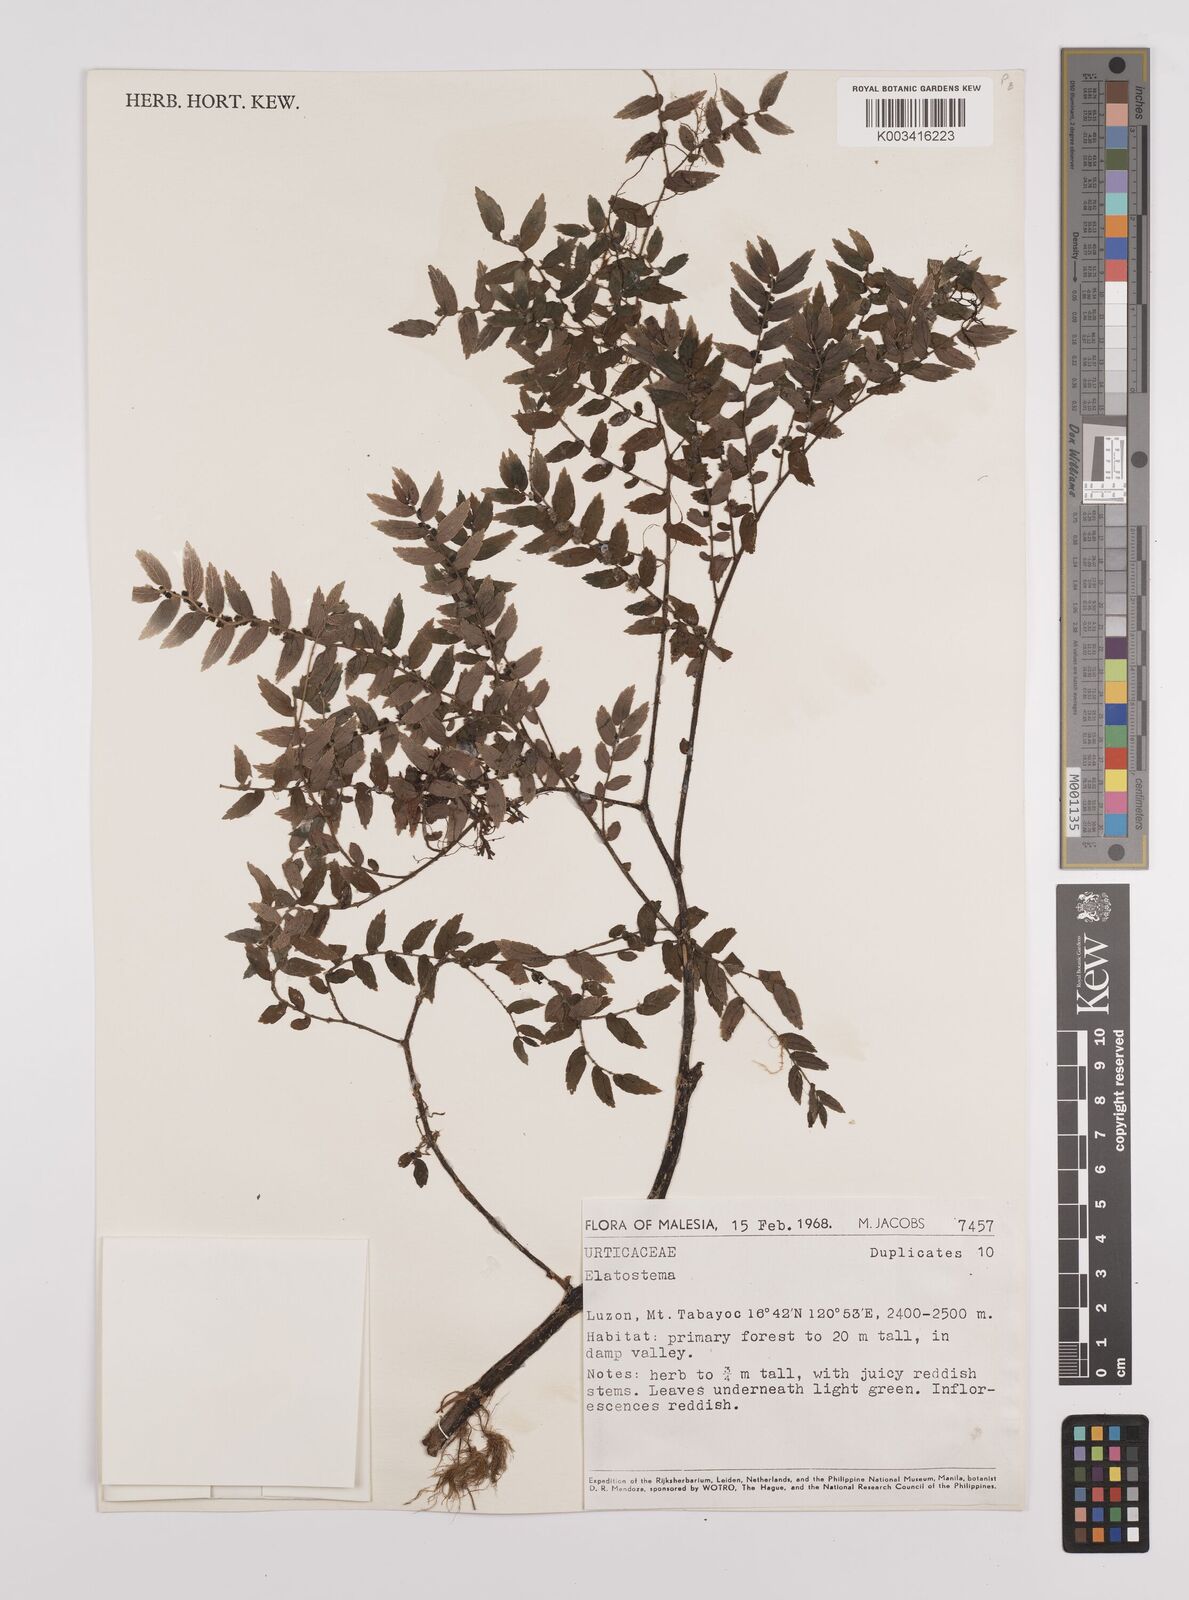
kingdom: Plantae
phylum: Tracheophyta
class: Magnoliopsida
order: Rosales
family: Urticaceae
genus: Elatostema
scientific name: Elatostema
